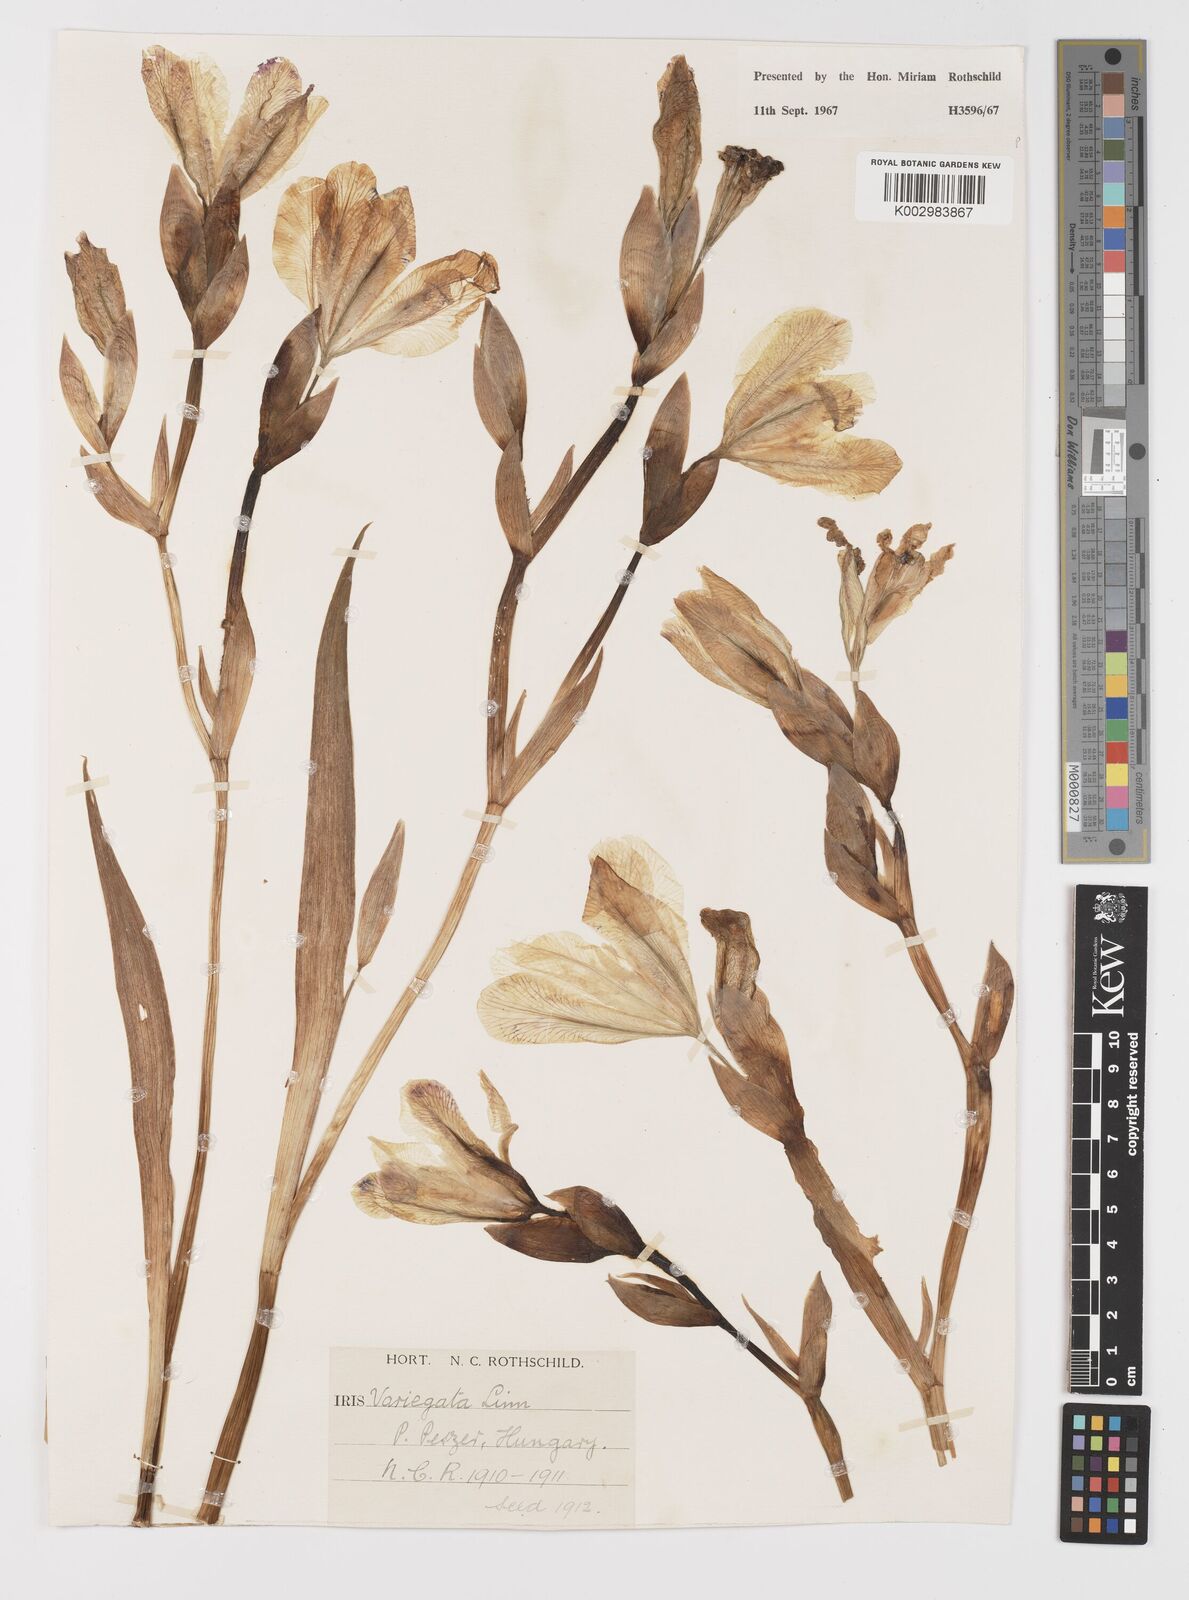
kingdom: Plantae
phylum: Tracheophyta
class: Liliopsida
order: Asparagales
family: Iridaceae
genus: Iris
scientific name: Iris variegata
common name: Hungarian iris
